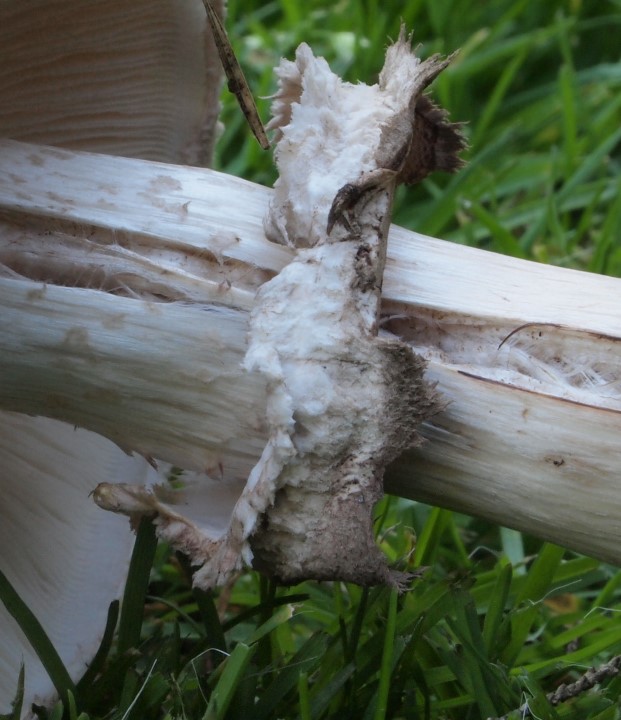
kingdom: Fungi
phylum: Basidiomycota
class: Agaricomycetes
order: Agaricales
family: Agaricaceae
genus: Chlorophyllum
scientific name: Chlorophyllum rhacodes
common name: ægte rabarberhat
